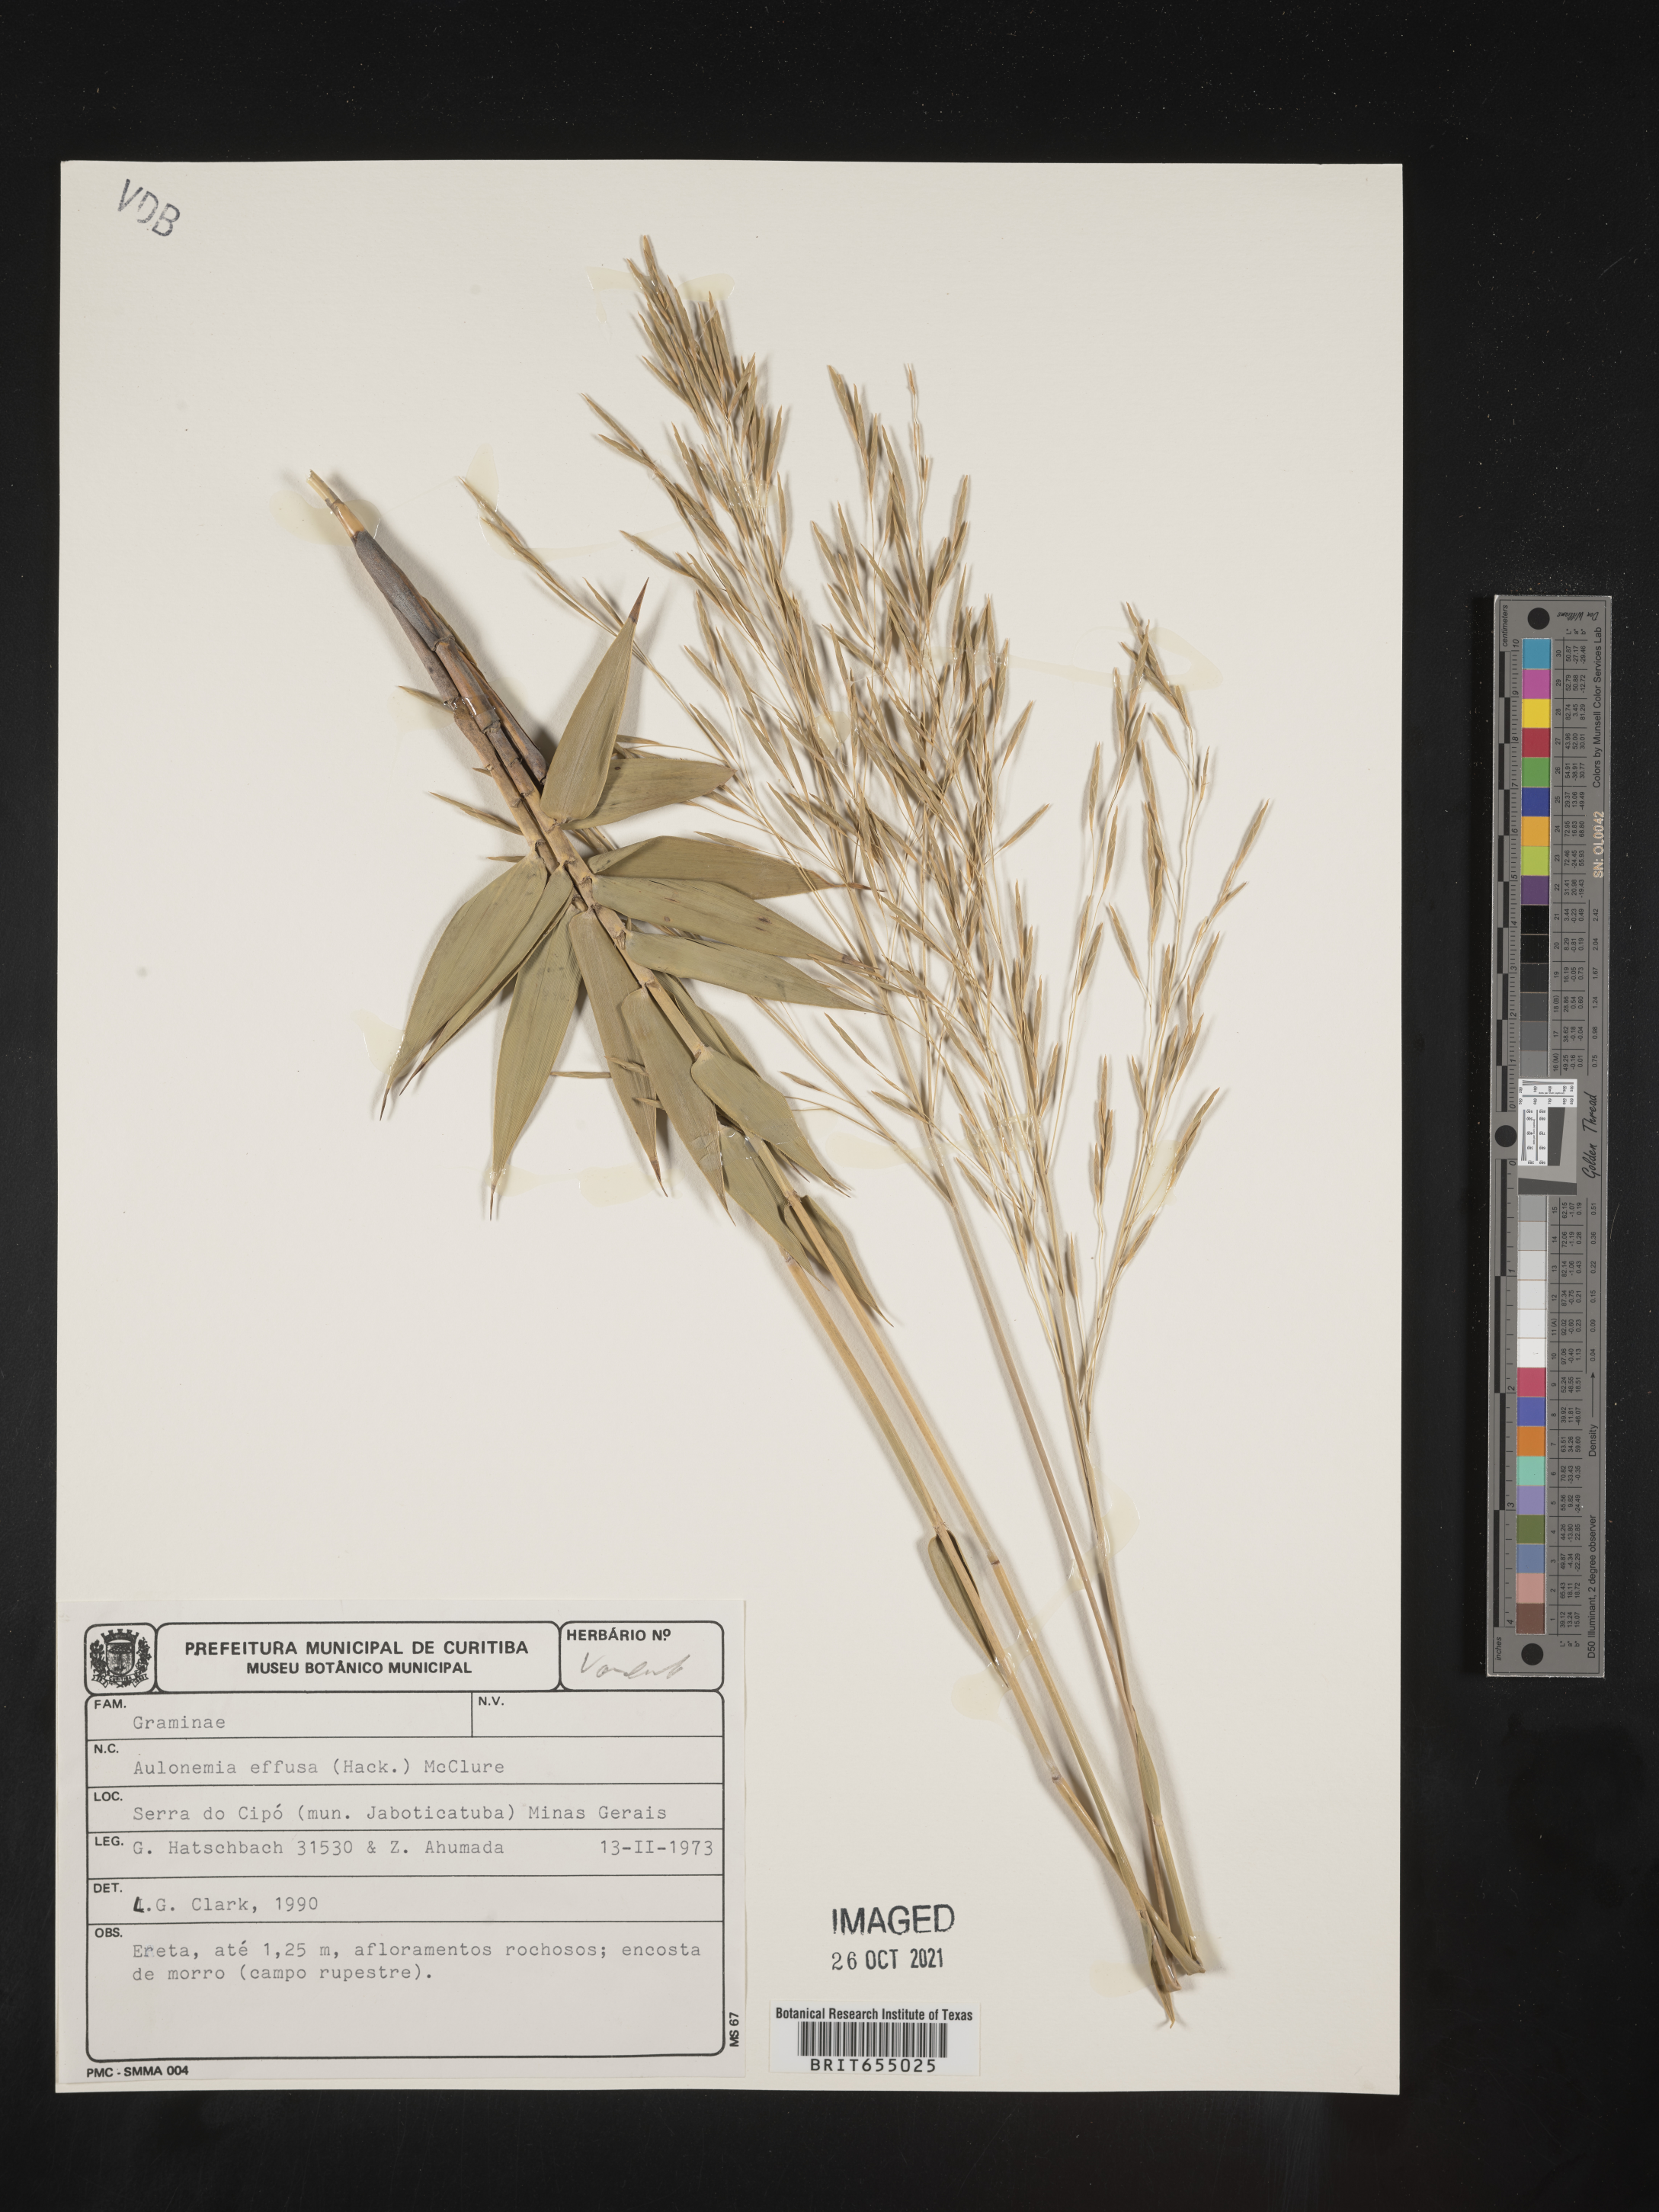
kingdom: Plantae
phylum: Tracheophyta
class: Liliopsida
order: Poales
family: Poaceae
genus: Aulonemia
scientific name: Aulonemia
